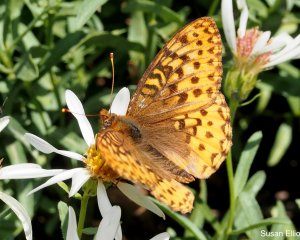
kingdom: Animalia
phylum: Arthropoda
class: Insecta
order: Lepidoptera
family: Nymphalidae
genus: Speyeria
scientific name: Speyeria zerene
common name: Zerene Fritillary
